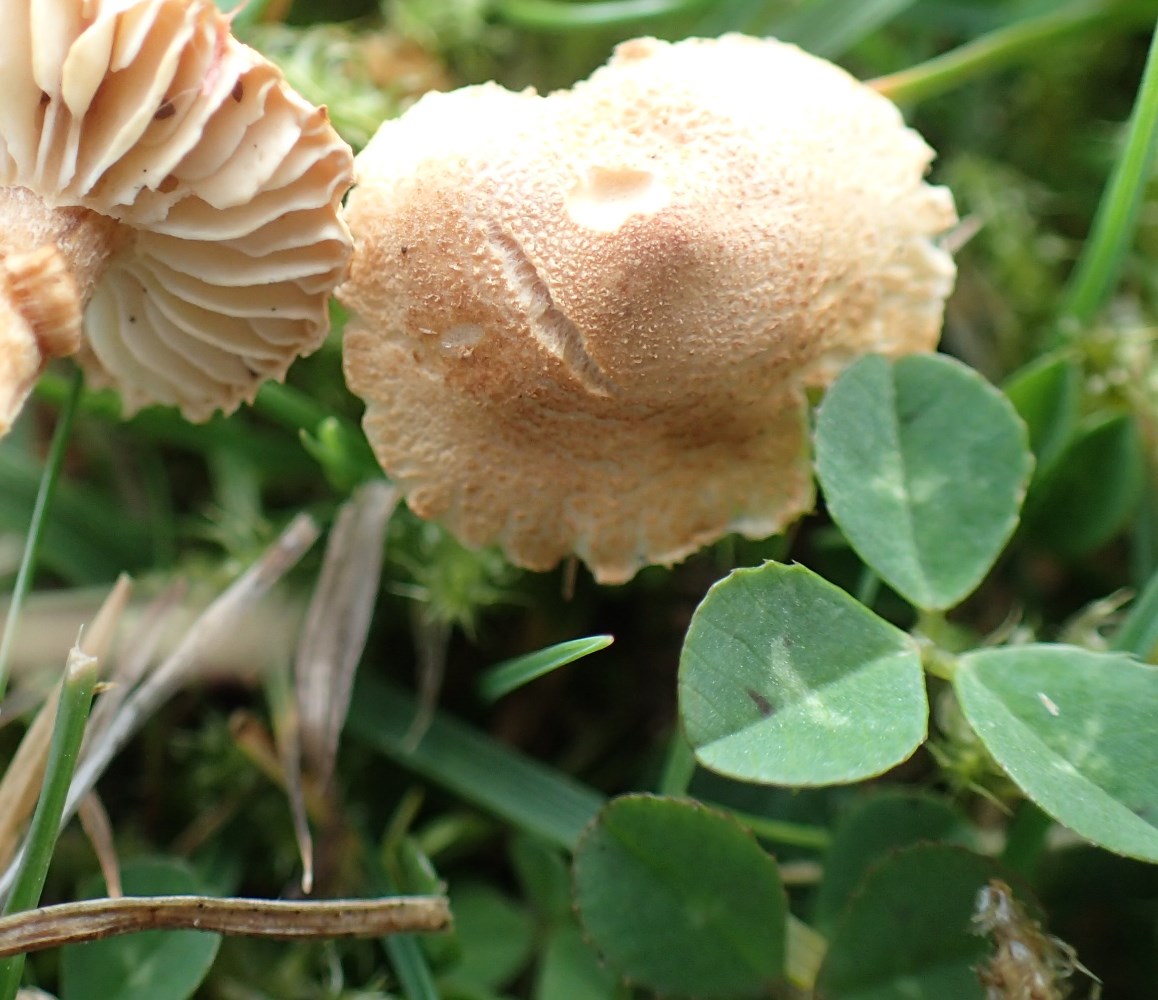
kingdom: Fungi
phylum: Basidiomycota
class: Agaricomycetes
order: Agaricales
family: Tricholomataceae
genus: Cystoderma
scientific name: Cystoderma
